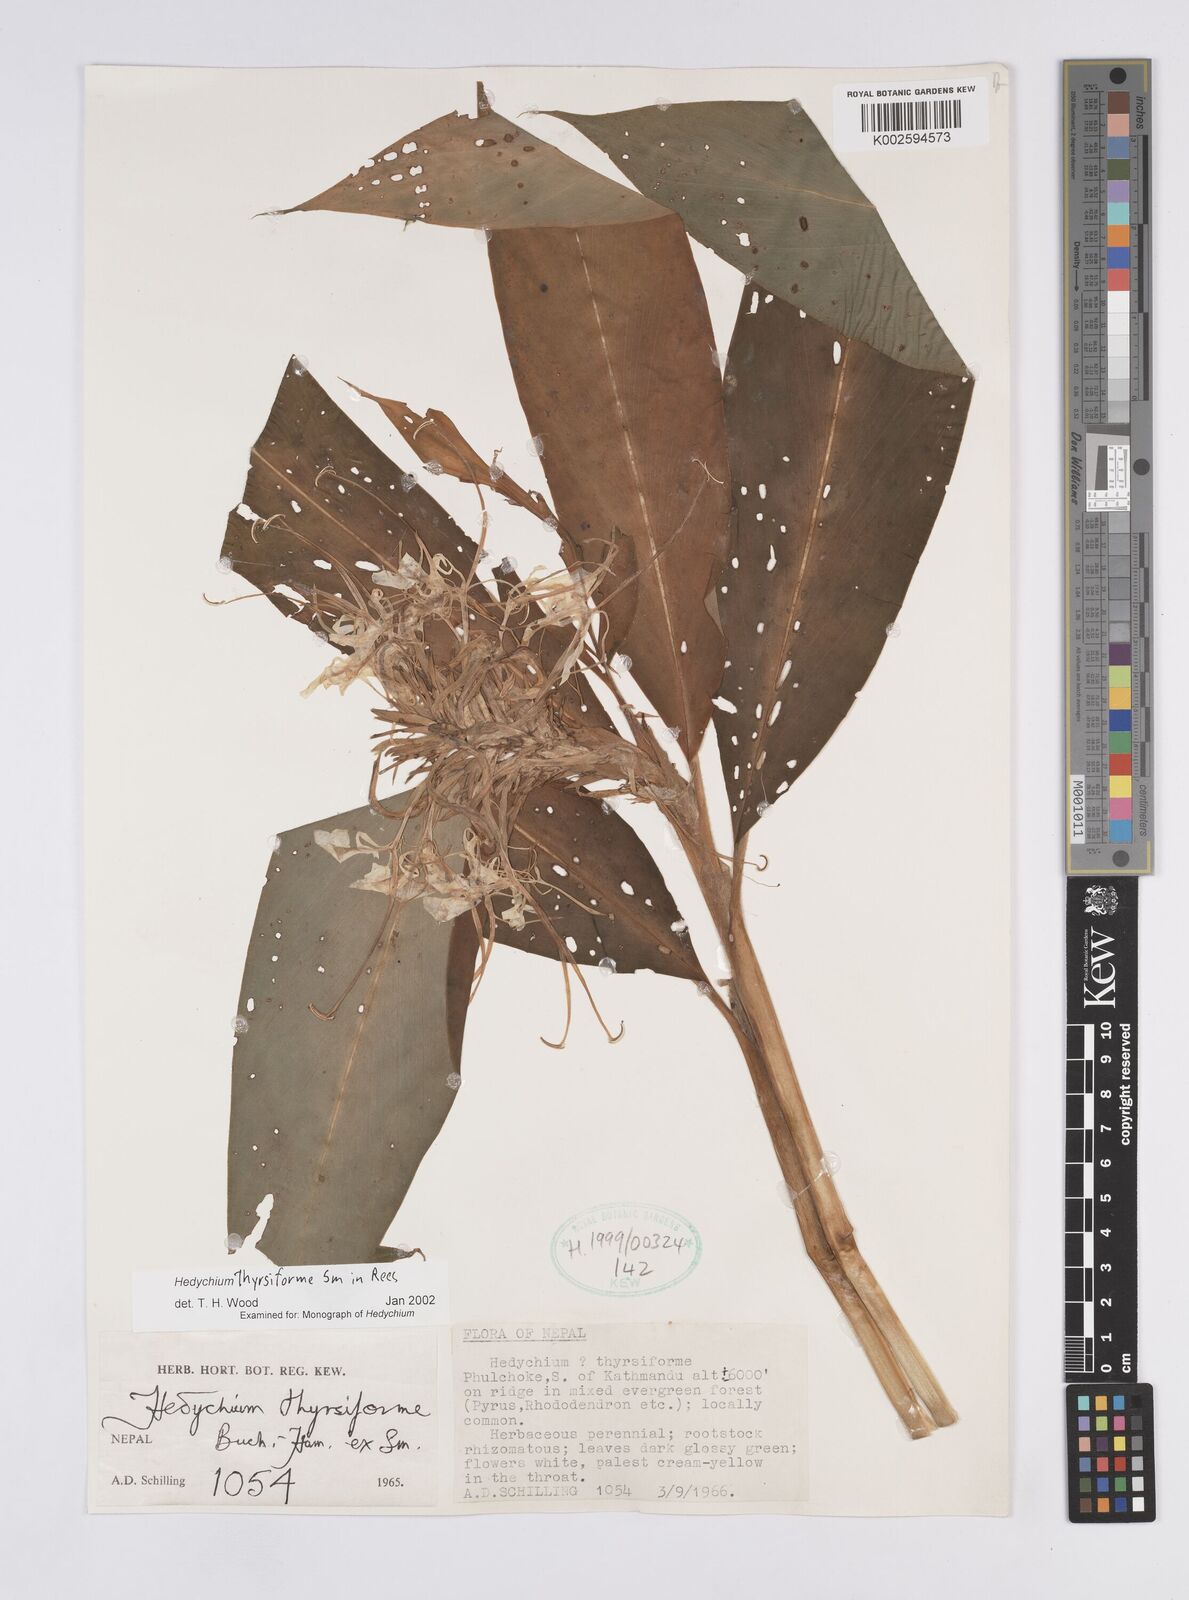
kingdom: Plantae
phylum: Tracheophyta
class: Liliopsida
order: Zingiberales
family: Zingiberaceae
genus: Hedychium
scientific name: Hedychium thyrsiforme
